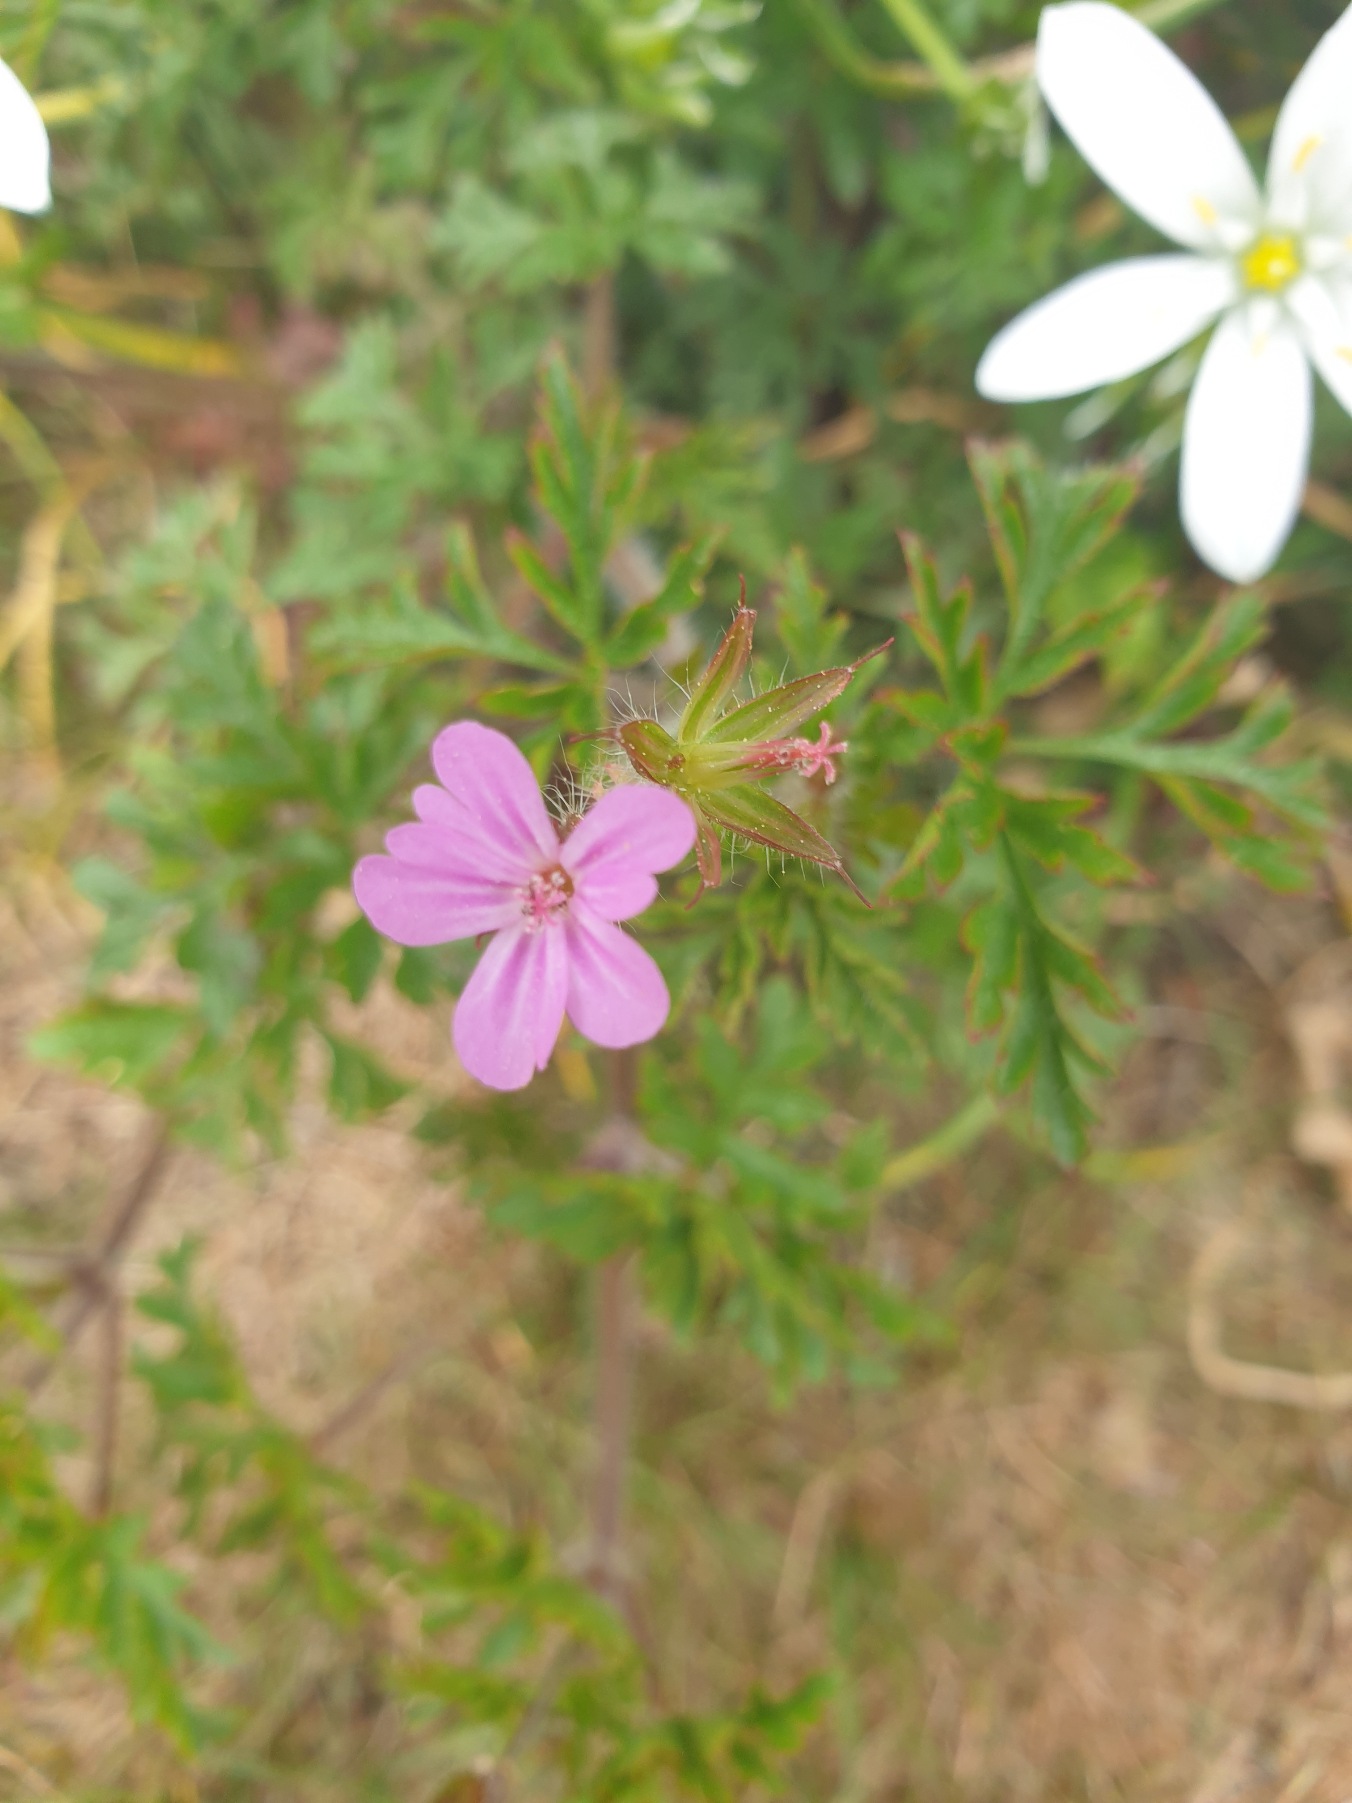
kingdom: Plantae
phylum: Tracheophyta
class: Magnoliopsida
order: Geraniales
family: Geraniaceae
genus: Geranium
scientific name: Geranium robertianum
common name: Stinkende storkenæb
